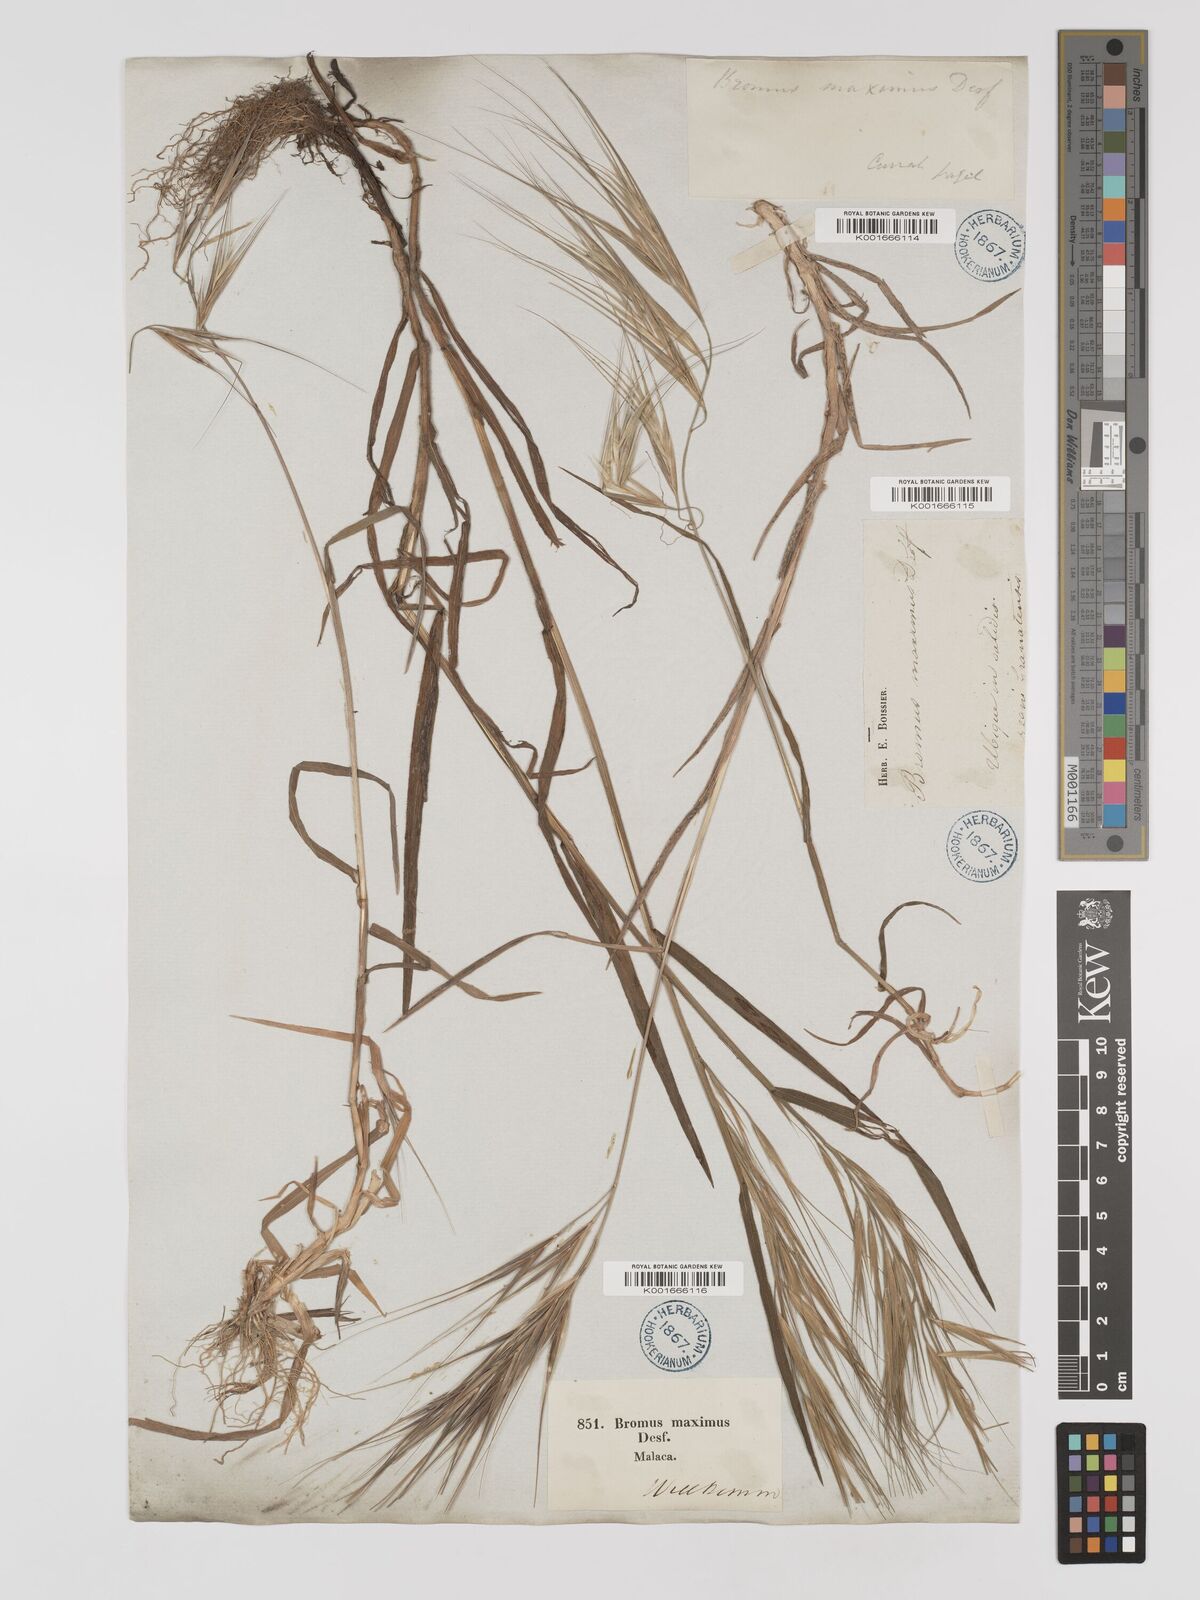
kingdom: Plantae
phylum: Tracheophyta
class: Liliopsida
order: Poales
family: Poaceae
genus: Bromus
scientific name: Bromus
